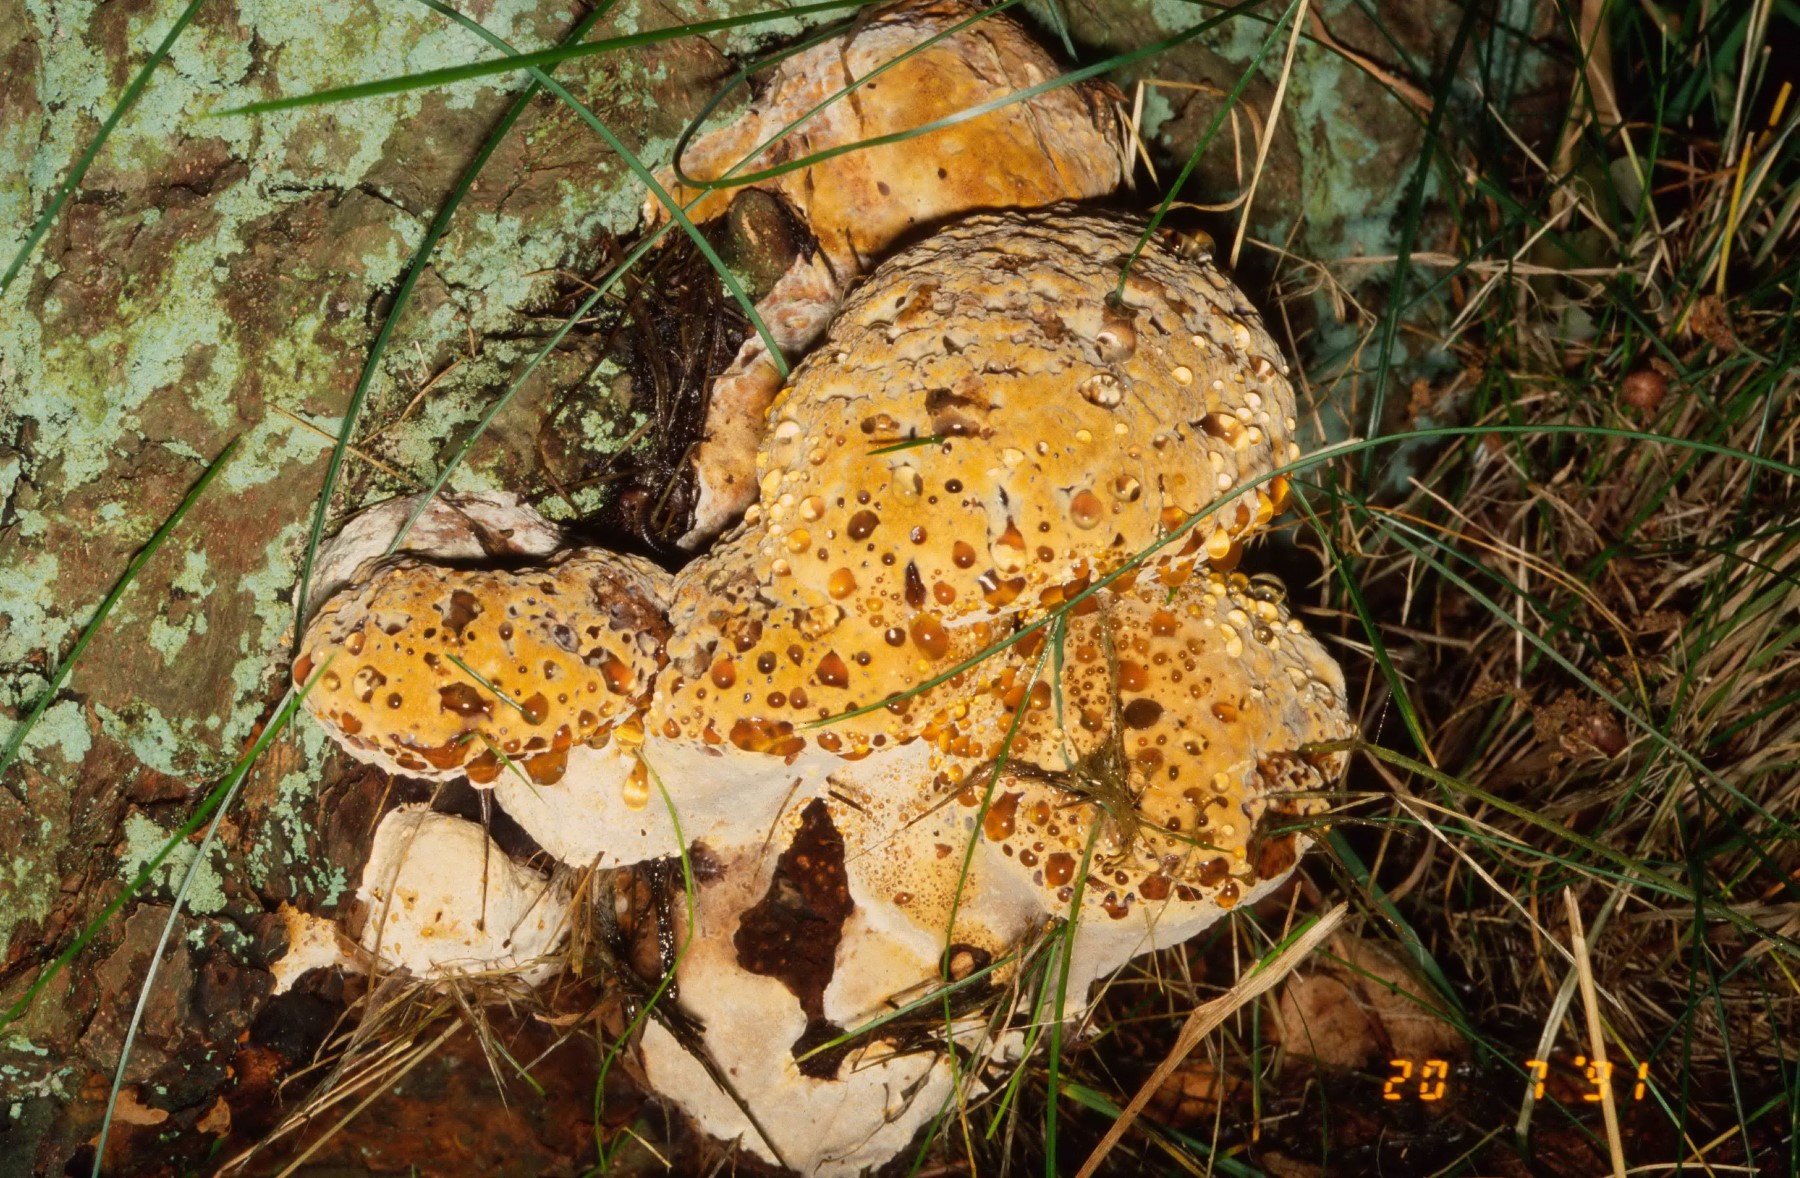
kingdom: Fungi
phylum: Basidiomycota
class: Agaricomycetes
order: Hymenochaetales
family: Hymenochaetaceae
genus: Pseudoinonotus
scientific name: Pseudoinonotus dryadeus
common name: ege-spejlporesvamp
